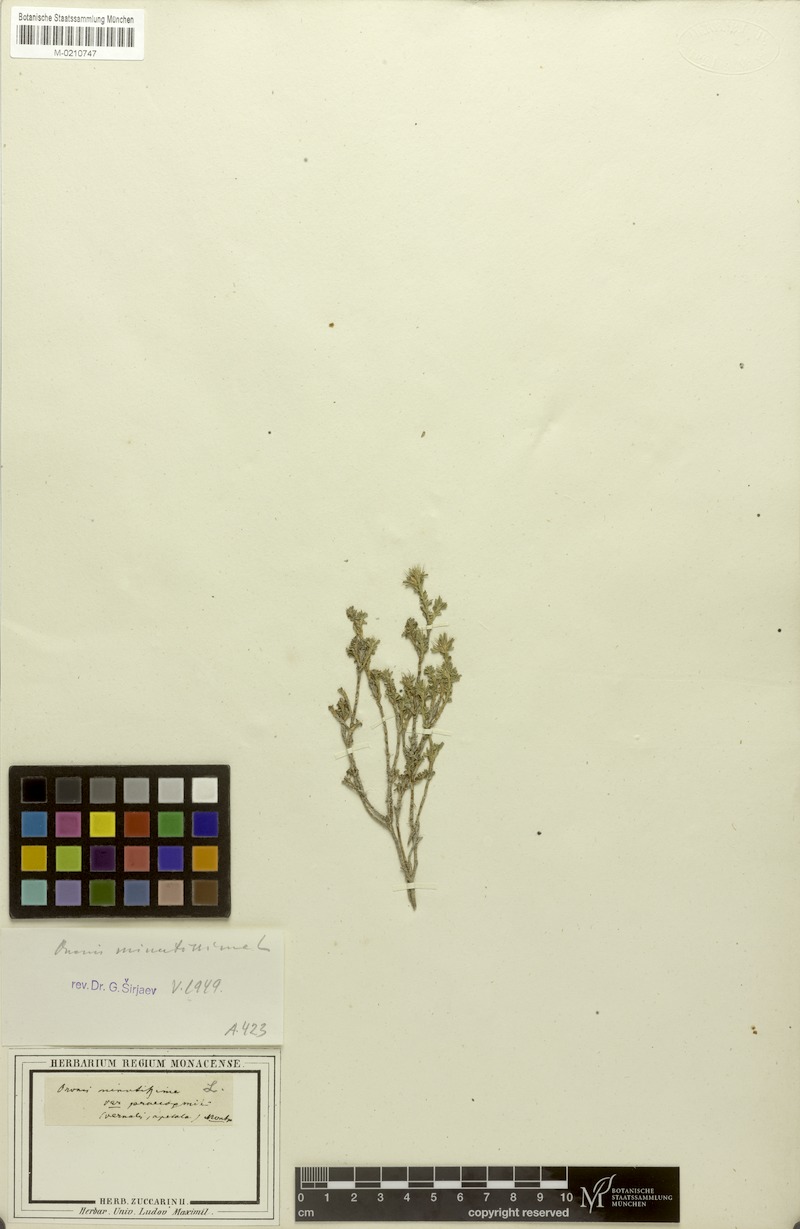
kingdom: Plantae
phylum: Tracheophyta
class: Magnoliopsida
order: Fabales
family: Fabaceae
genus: Ononis
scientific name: Ononis minutissima
